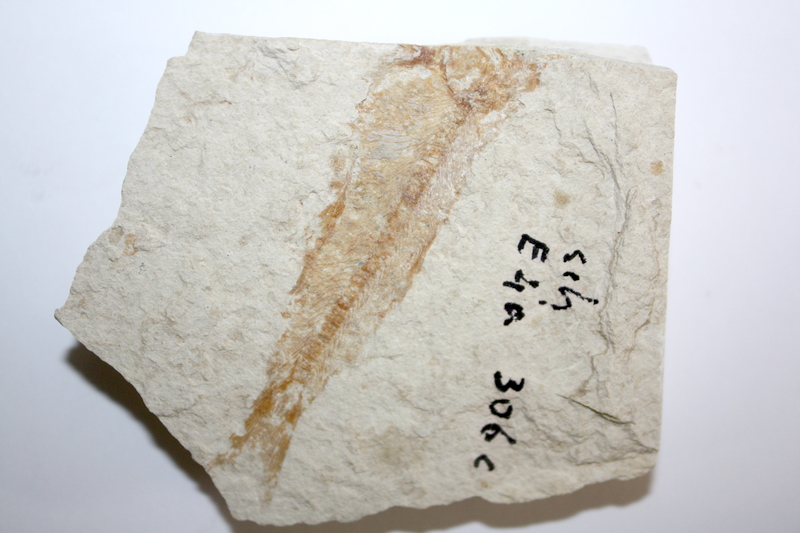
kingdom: Animalia
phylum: Chordata
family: Ascalaboidae
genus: Tharsis
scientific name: Tharsis dubius
